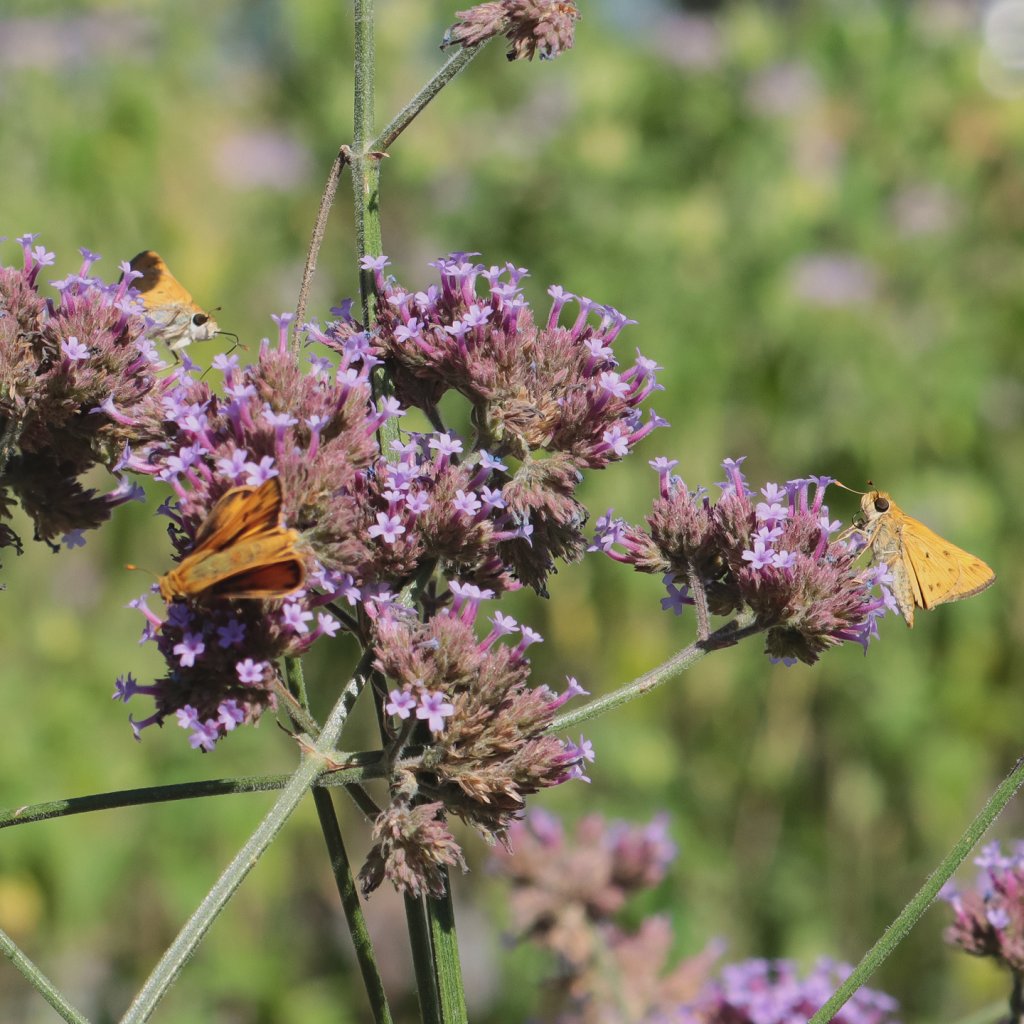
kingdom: Animalia
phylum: Arthropoda
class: Insecta
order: Lepidoptera
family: Hesperiidae
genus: Hylephila
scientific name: Hylephila phyleus
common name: Fiery Skipper
